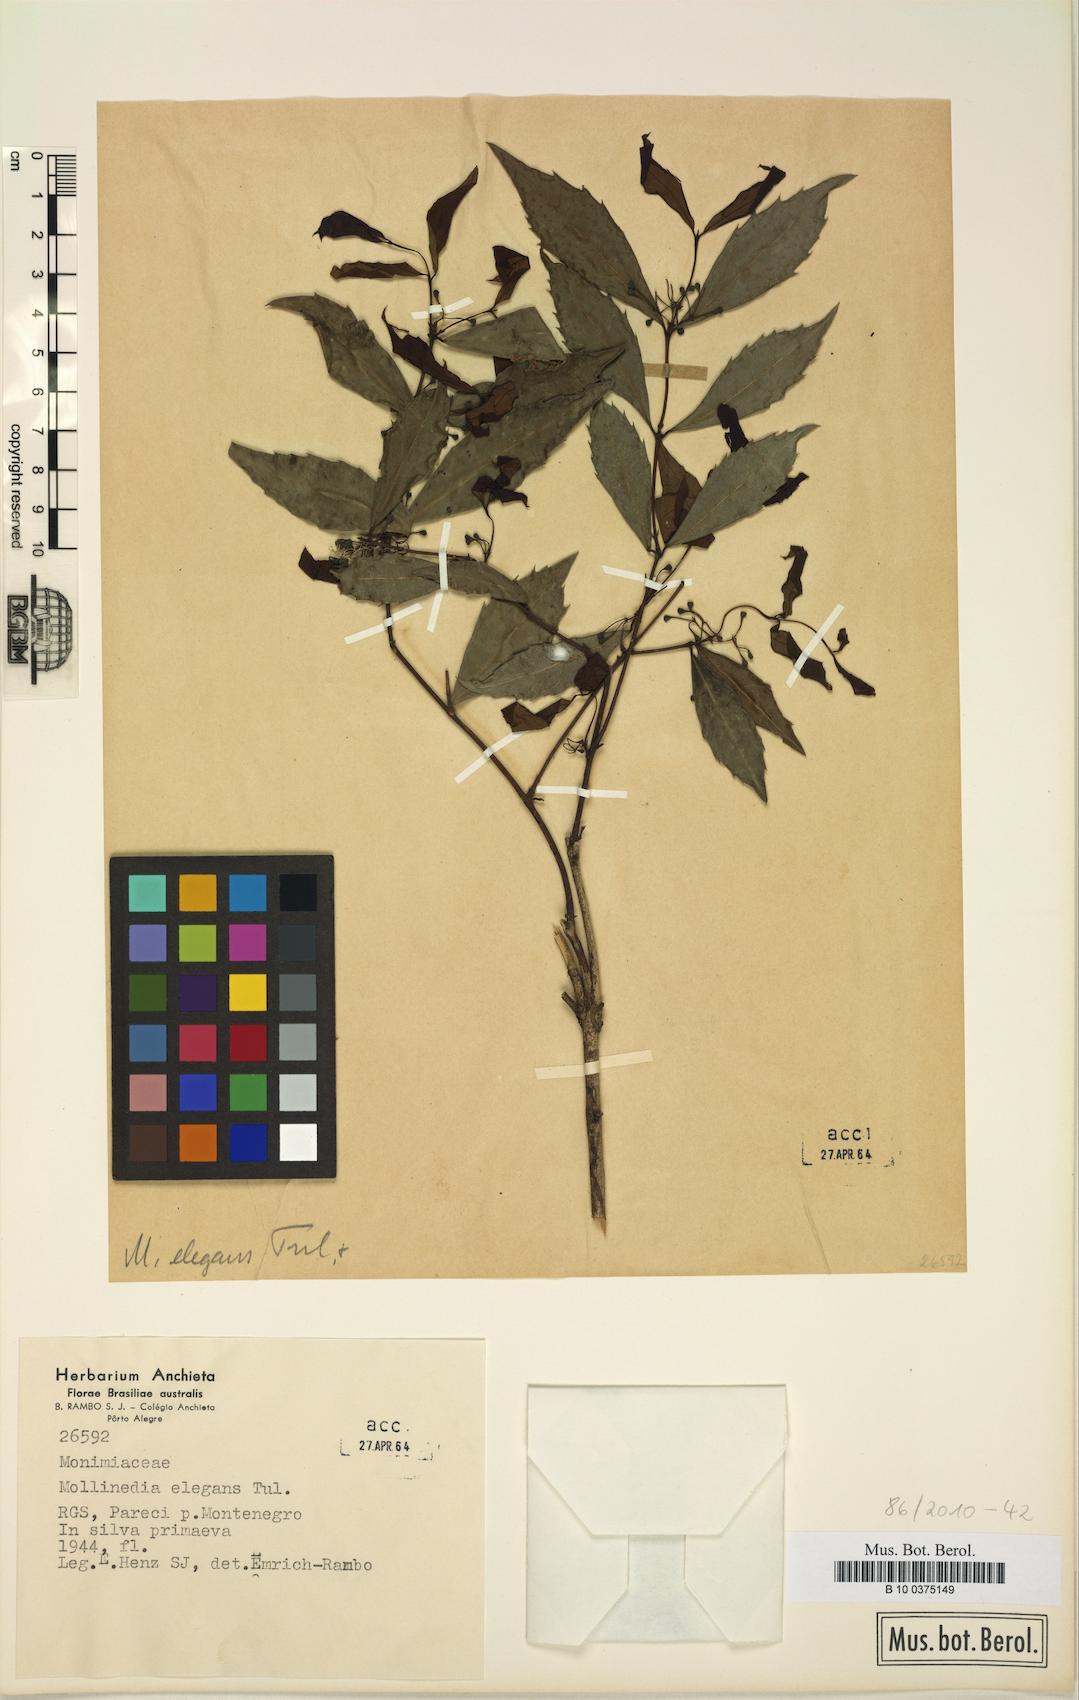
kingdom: Plantae
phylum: Tracheophyta
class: Magnoliopsida
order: Laurales
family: Monimiaceae
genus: Mollinedia
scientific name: Mollinedia elegans
